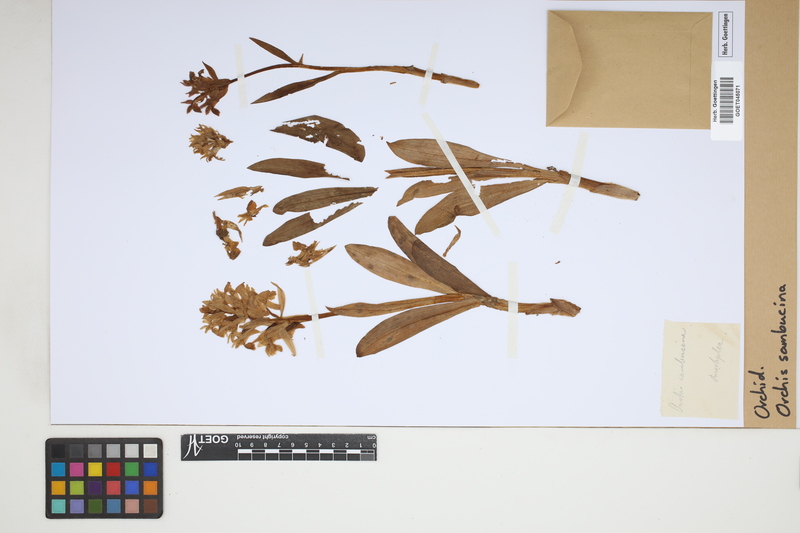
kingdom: Plantae
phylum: Tracheophyta
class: Liliopsida
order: Asparagales
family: Orchidaceae
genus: Dactylorhiza
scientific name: Dactylorhiza sambucina
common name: Elder-flowered orchid
